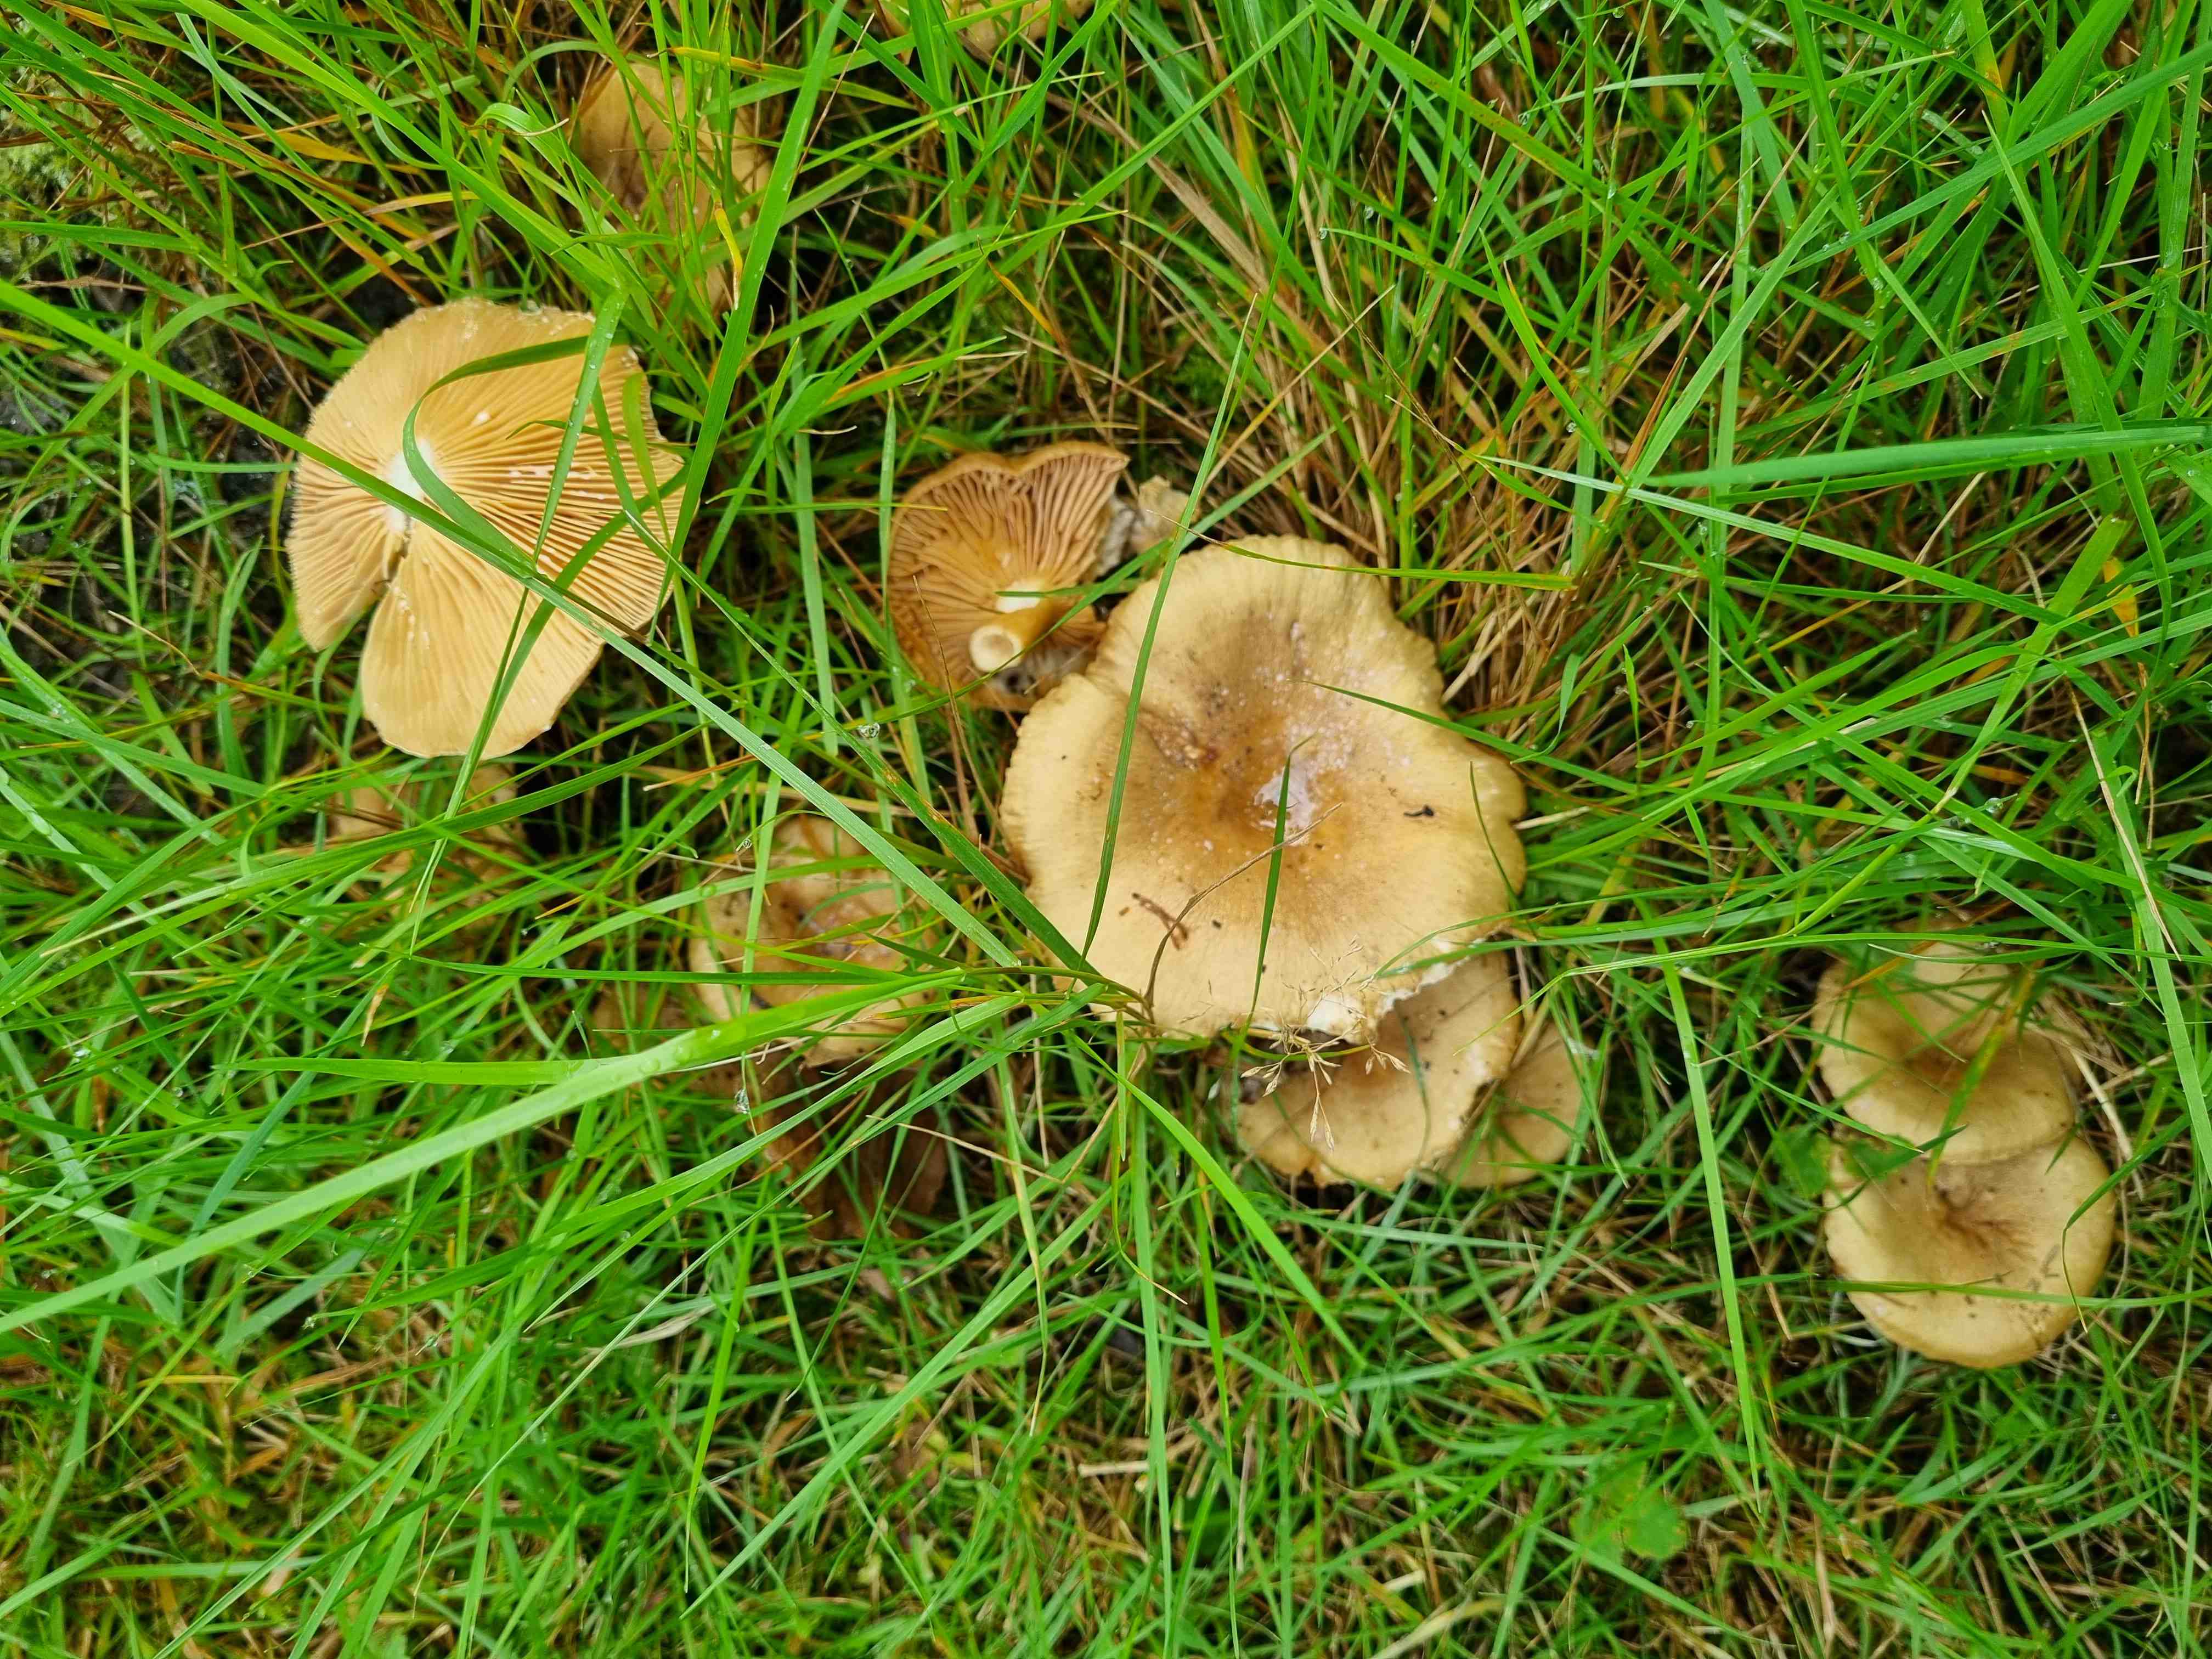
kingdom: Fungi
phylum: Basidiomycota
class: Agaricomycetes
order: Russulales
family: Russulaceae
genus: Lactarius
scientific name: Lactarius pyrogalus
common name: hassel-mælkehat
